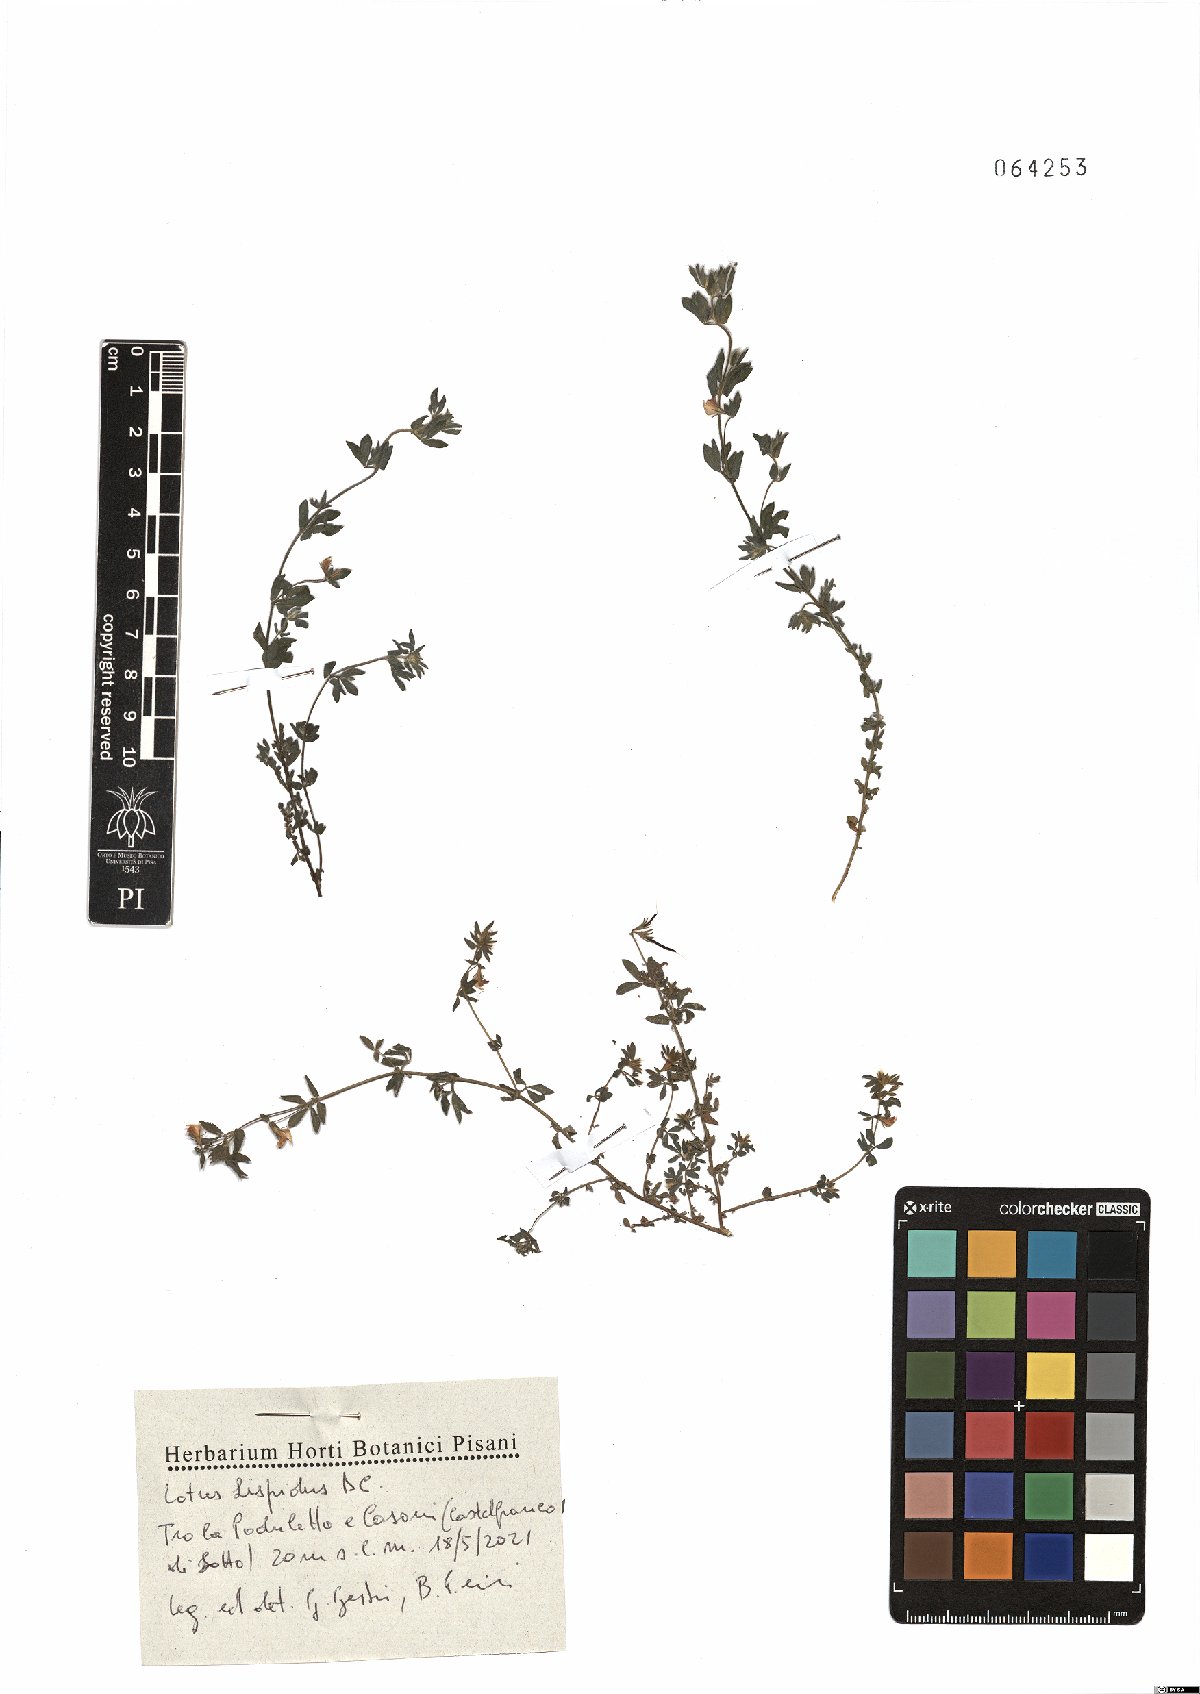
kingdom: Plantae
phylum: Tracheophyta
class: Magnoliopsida
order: Fabales
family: Fabaceae
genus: Lotus
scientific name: Lotus parviflorus
